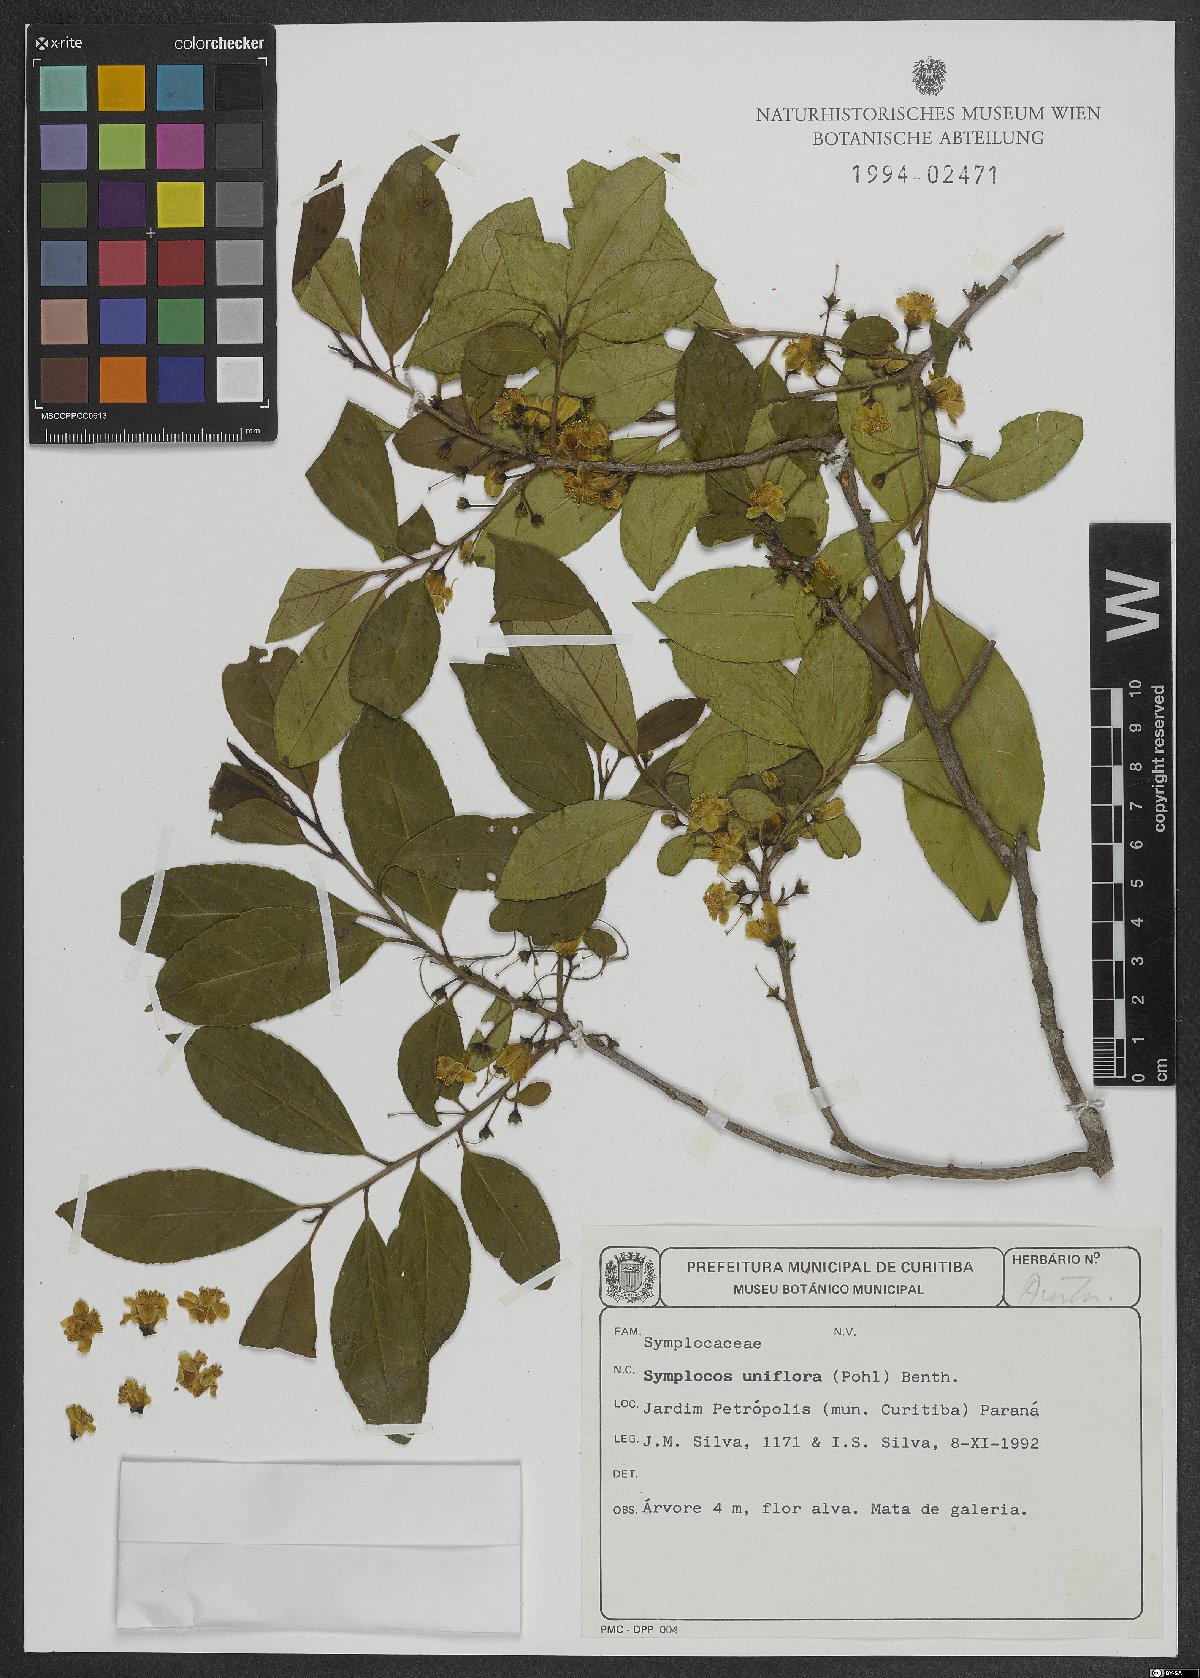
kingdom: Plantae
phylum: Tracheophyta
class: Magnoliopsida
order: Ericales
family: Symplocaceae
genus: Symplocos
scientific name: Symplocos uniflora
